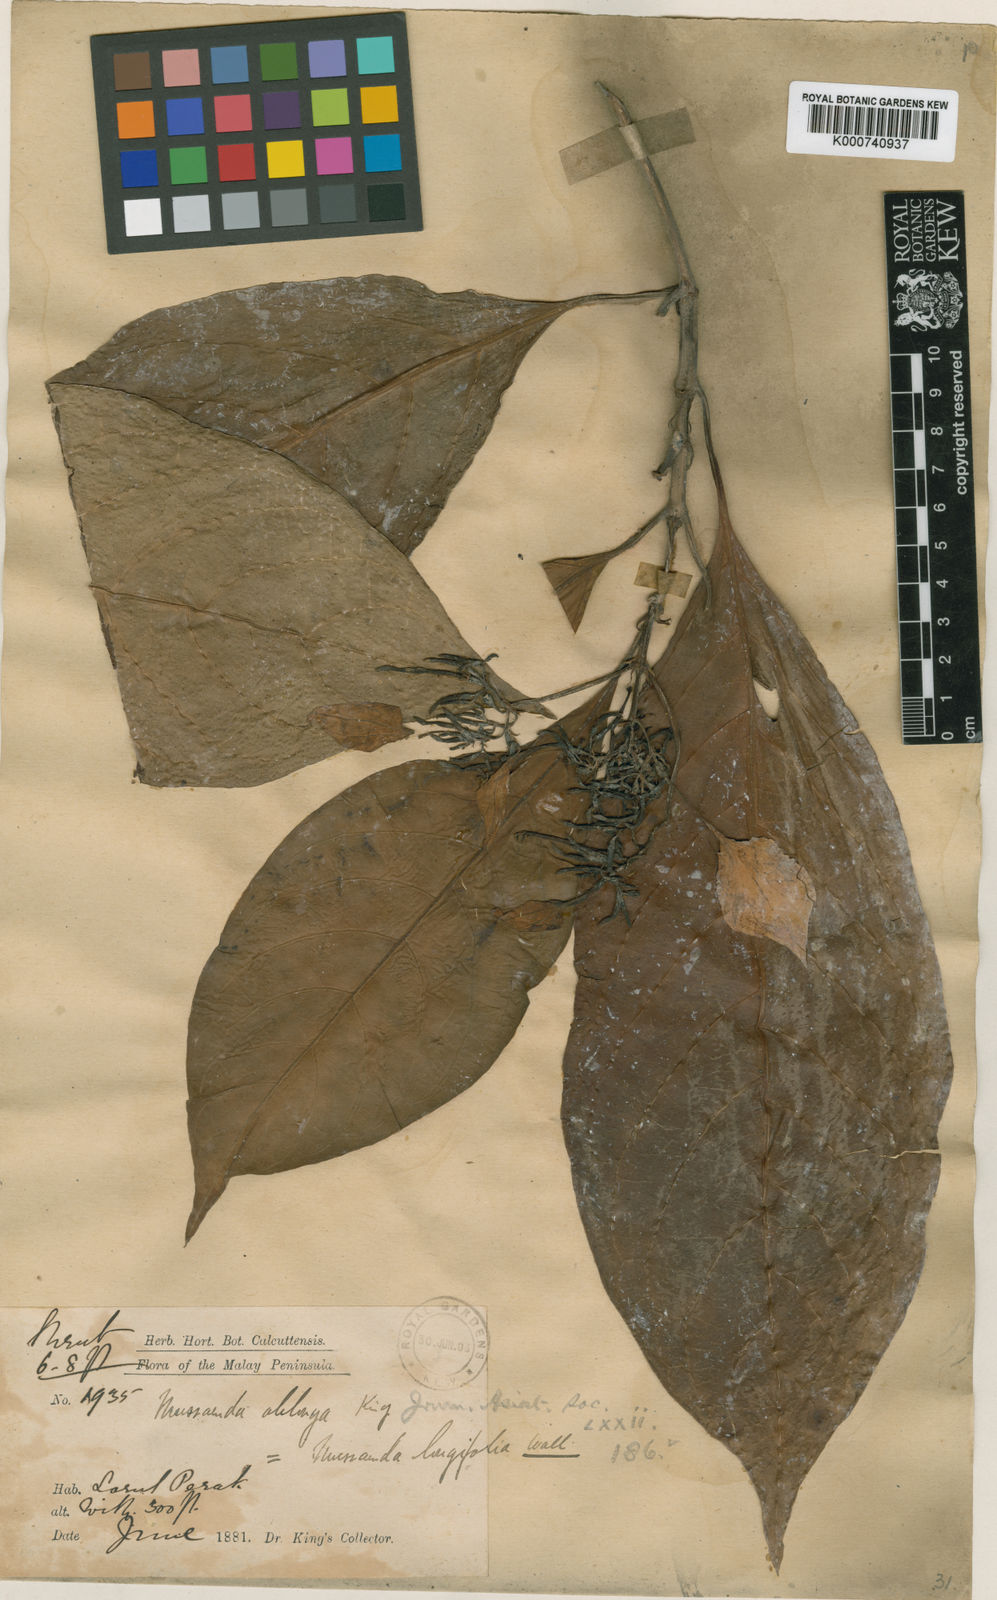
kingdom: Plantae
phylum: Tracheophyta
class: Magnoliopsida
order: Gentianales
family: Rubiaceae
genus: Mussaenda
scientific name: Mussaenda wallichii
